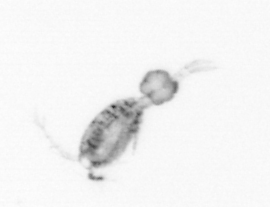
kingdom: Animalia
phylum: Arthropoda
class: Copepoda
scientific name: Copepoda
